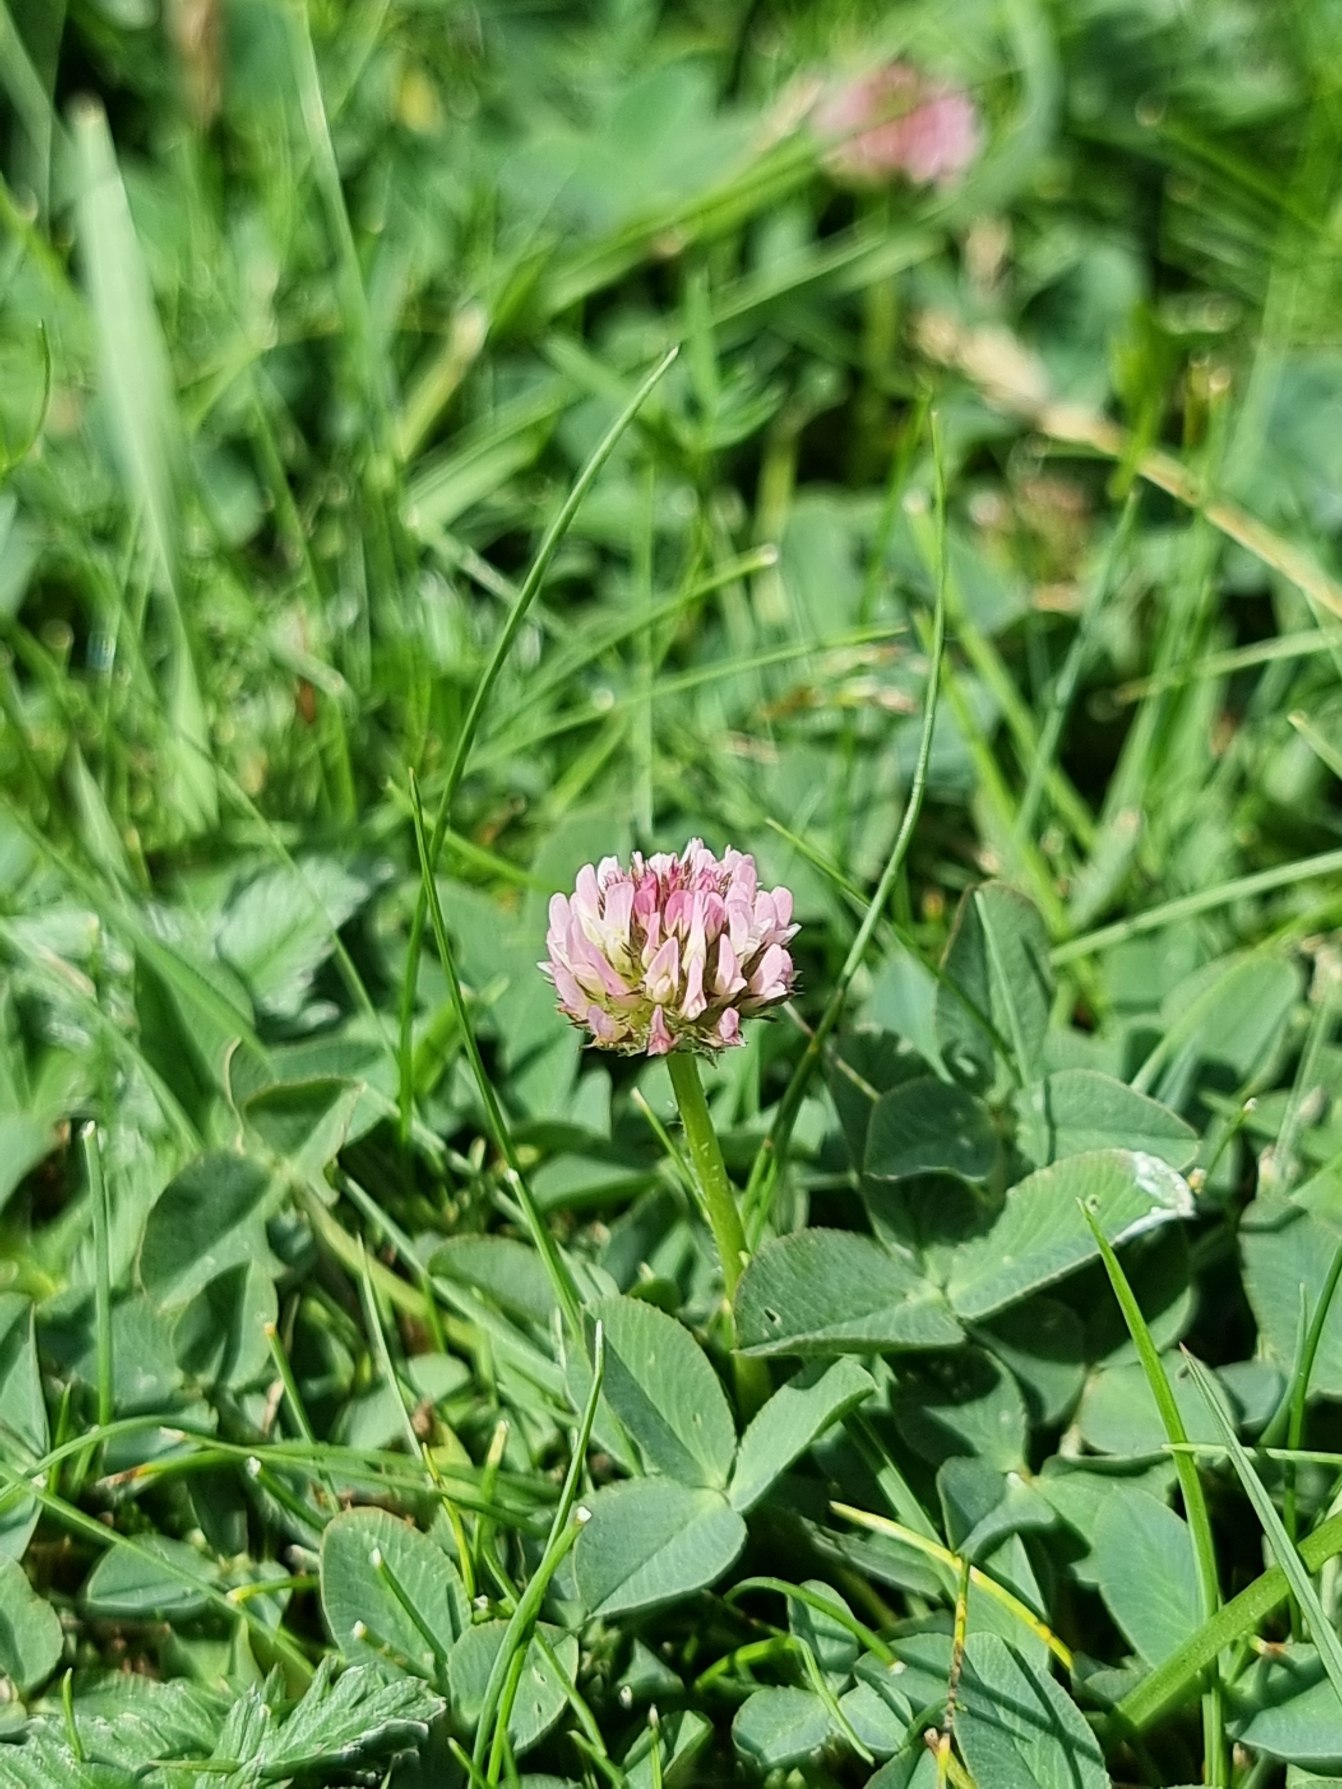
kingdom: Plantae
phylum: Tracheophyta
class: Magnoliopsida
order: Fabales
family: Fabaceae
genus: Trifolium
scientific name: Trifolium fragiferum
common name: Jordbær-kløver
